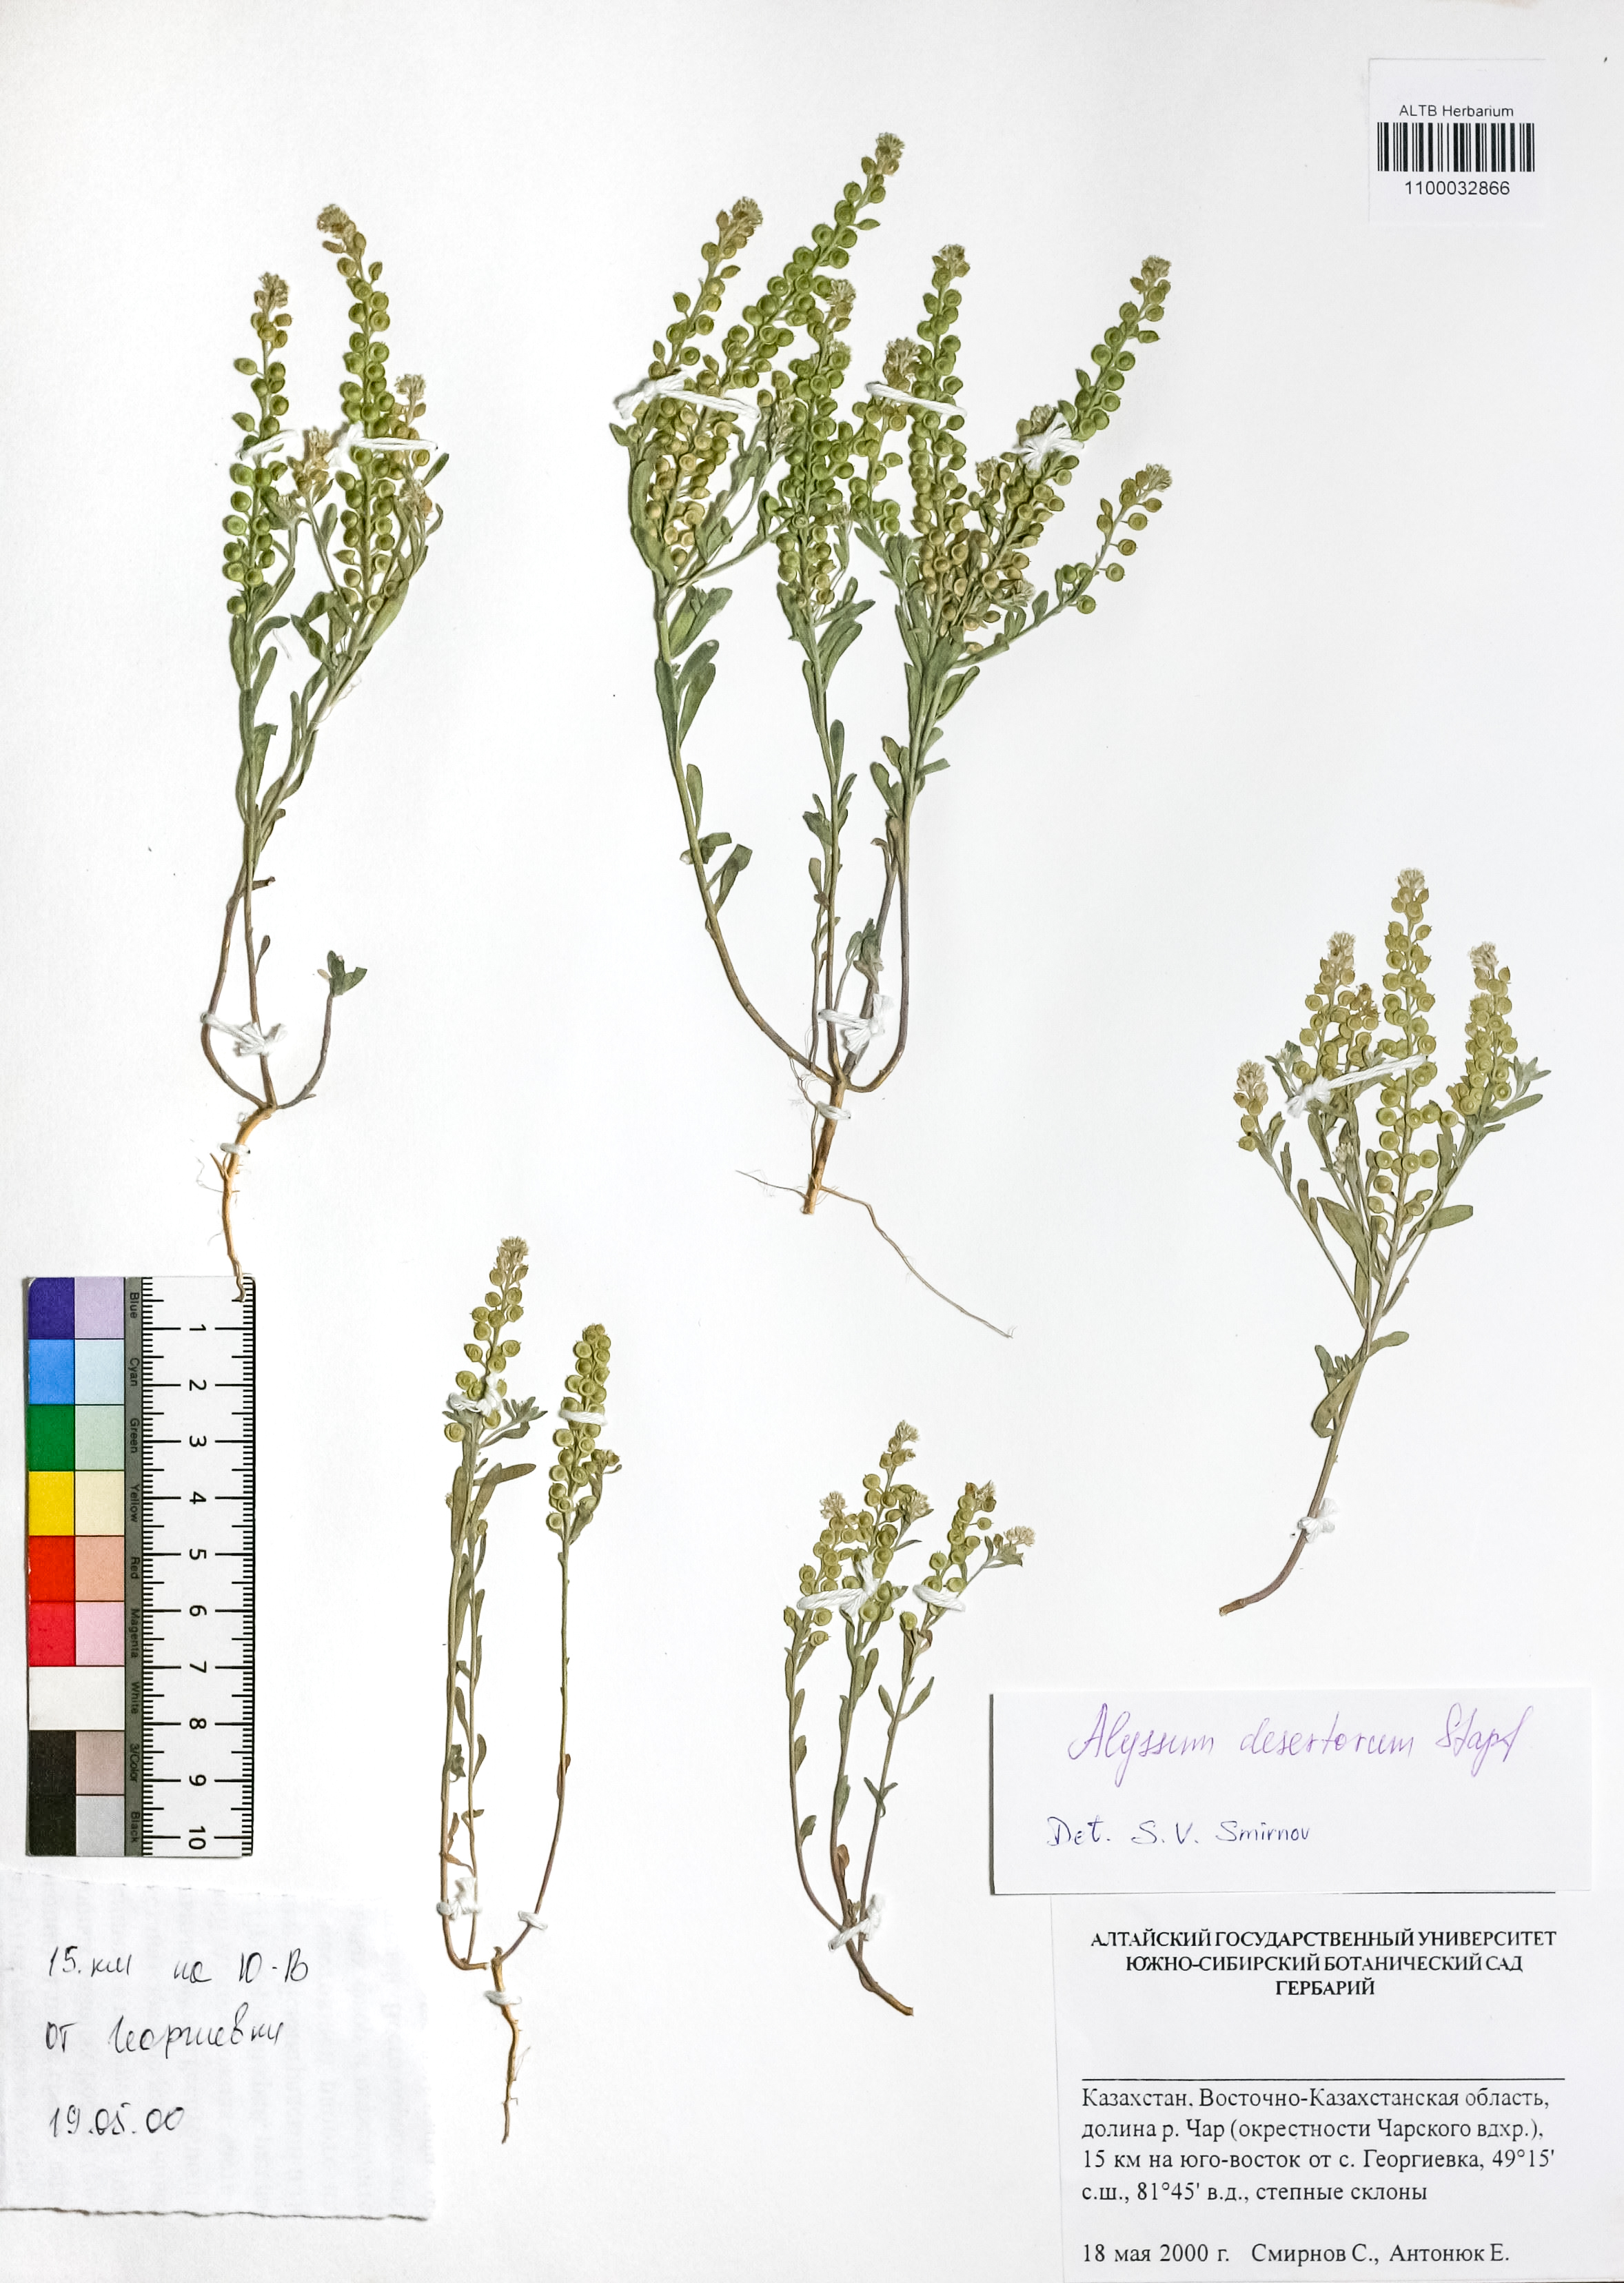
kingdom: Plantae
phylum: Tracheophyta
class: Magnoliopsida
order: Brassicales
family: Brassicaceae
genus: Alyssum
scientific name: Alyssum turkestanicum
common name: Desert alyssum
